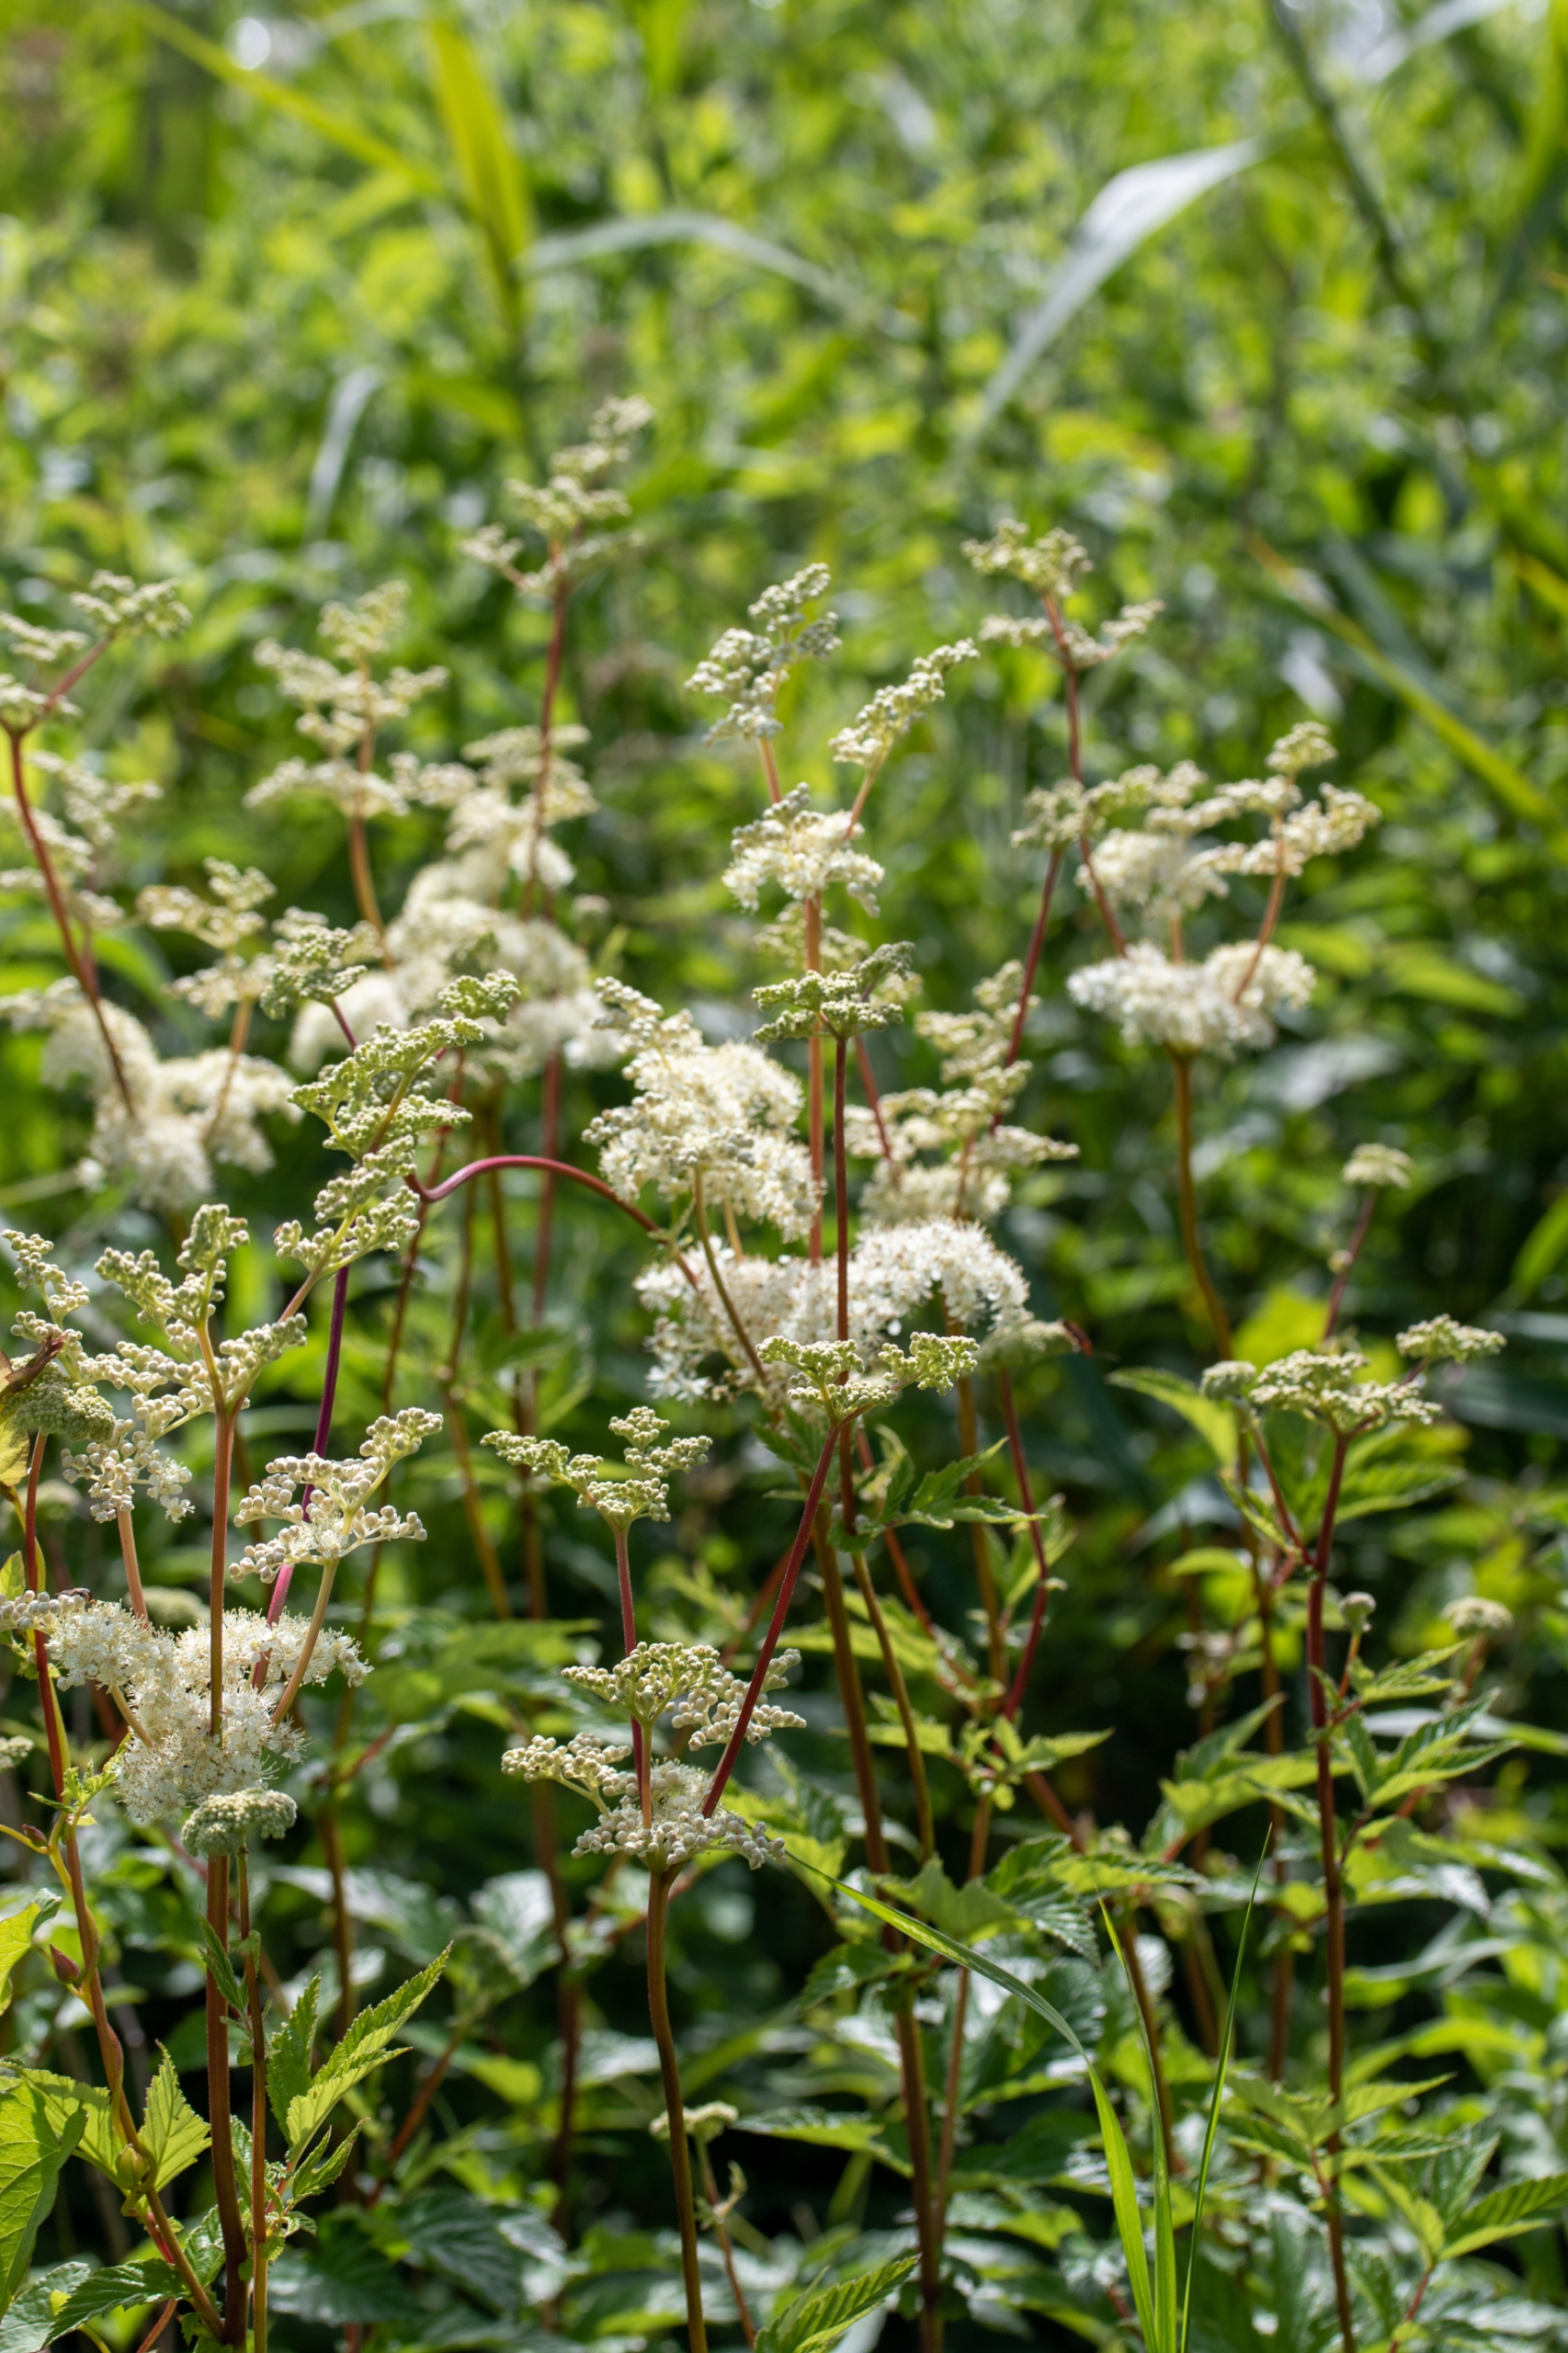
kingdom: Plantae
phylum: Tracheophyta
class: Magnoliopsida
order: Rosales
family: Rosaceae
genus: Filipendula
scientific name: Filipendula ulmaria
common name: Almindelig mjødurt
